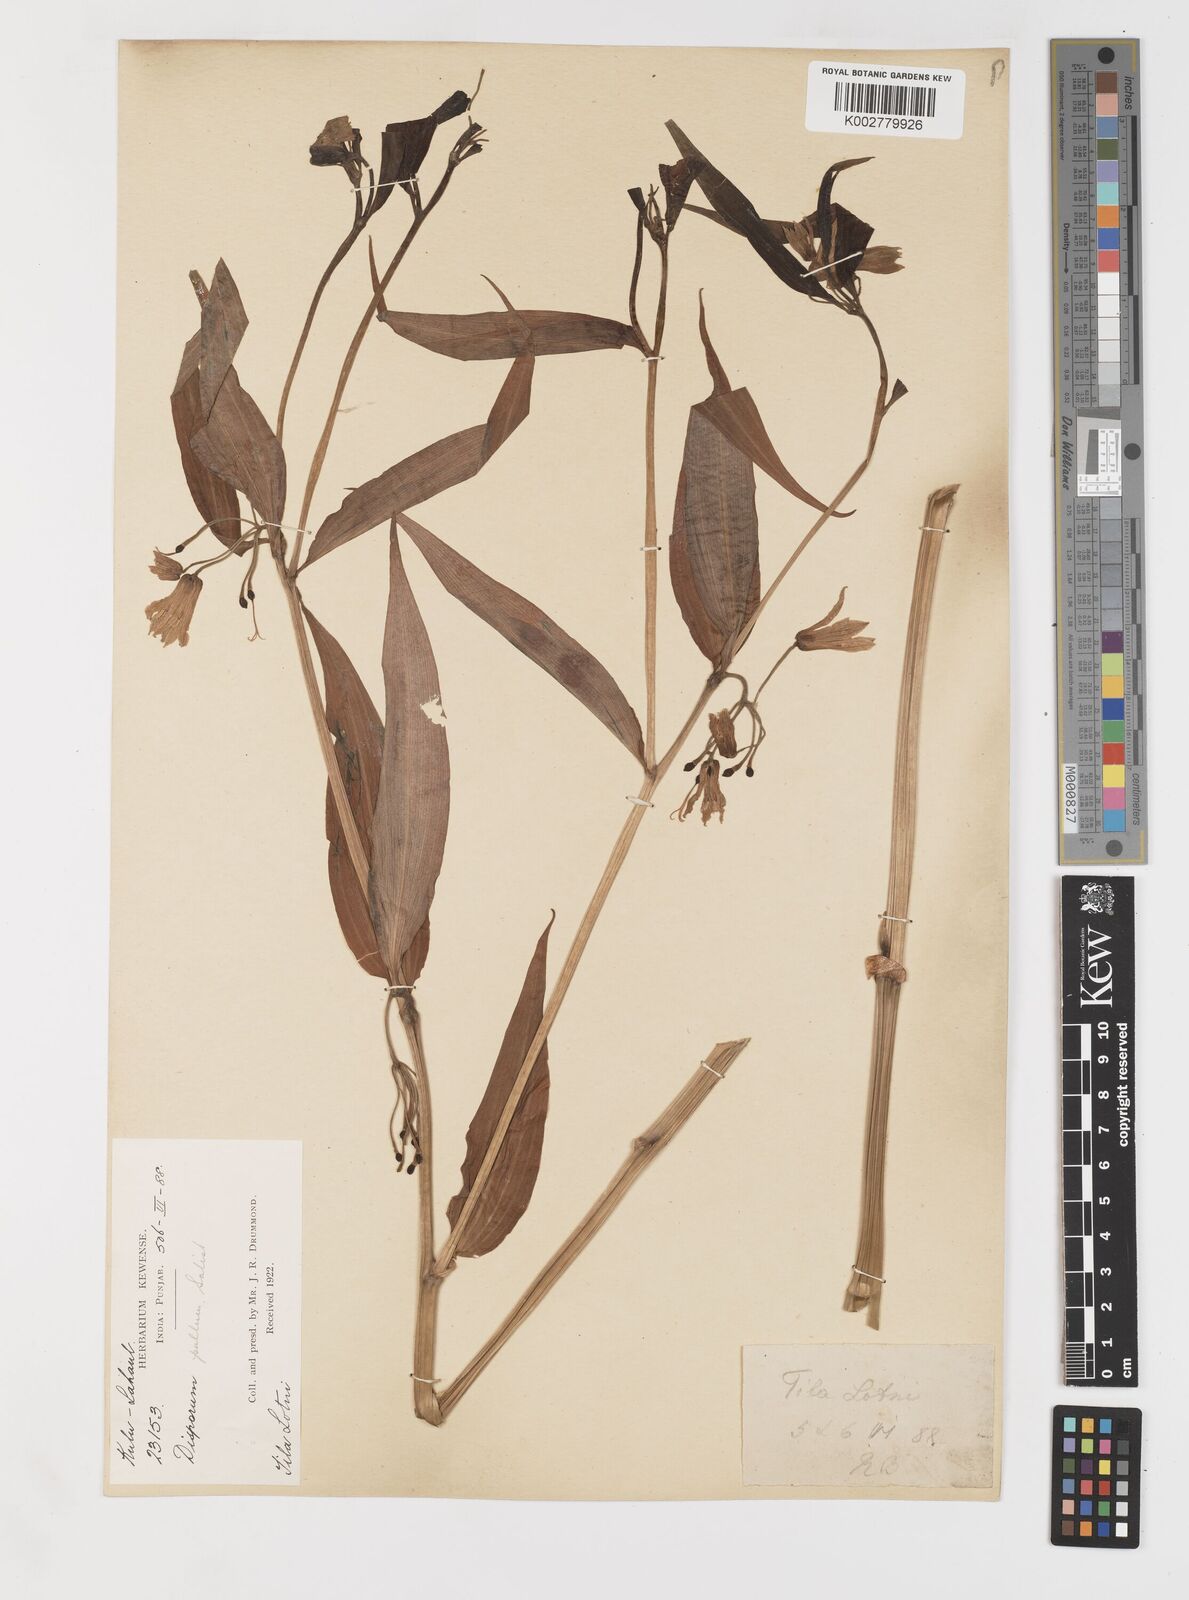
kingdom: Plantae
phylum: Tracheophyta
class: Liliopsida
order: Liliales
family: Colchicaceae
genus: Disporum
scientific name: Disporum cantoniense
